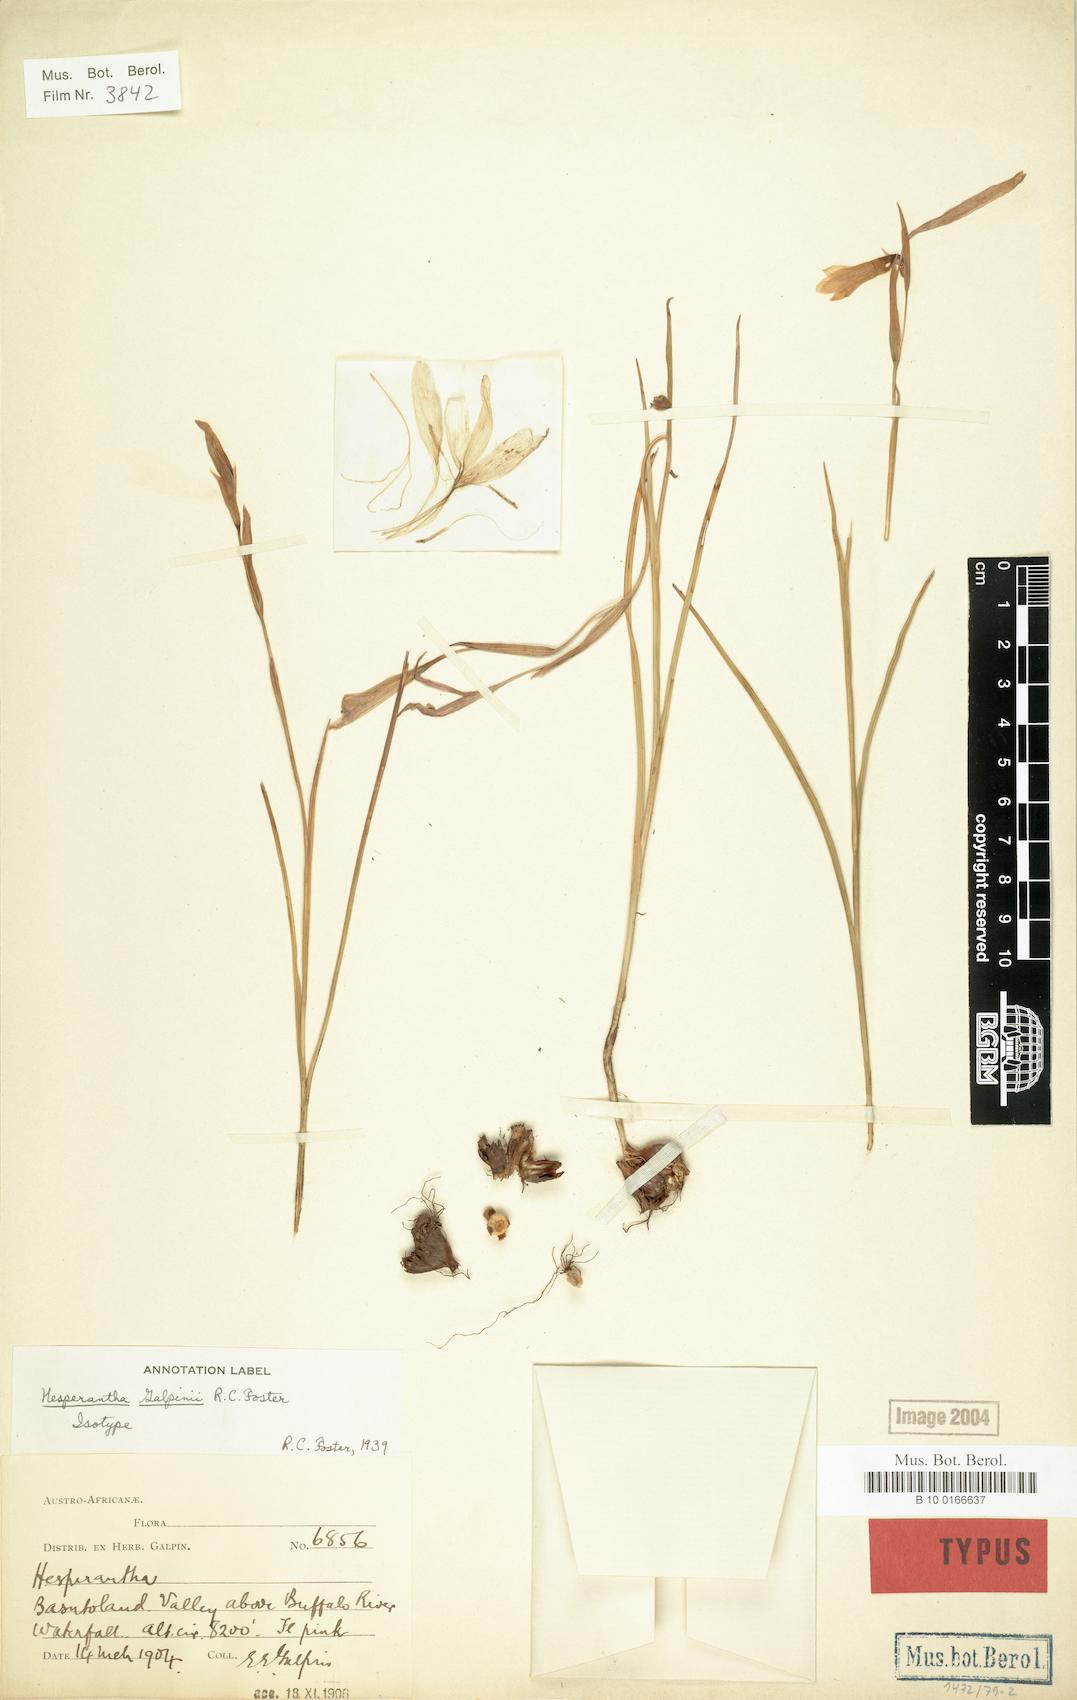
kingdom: Plantae
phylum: Tracheophyta
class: Liliopsida
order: Asparagales
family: Iridaceae
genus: Hesperantha
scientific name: Hesperantha woodii
